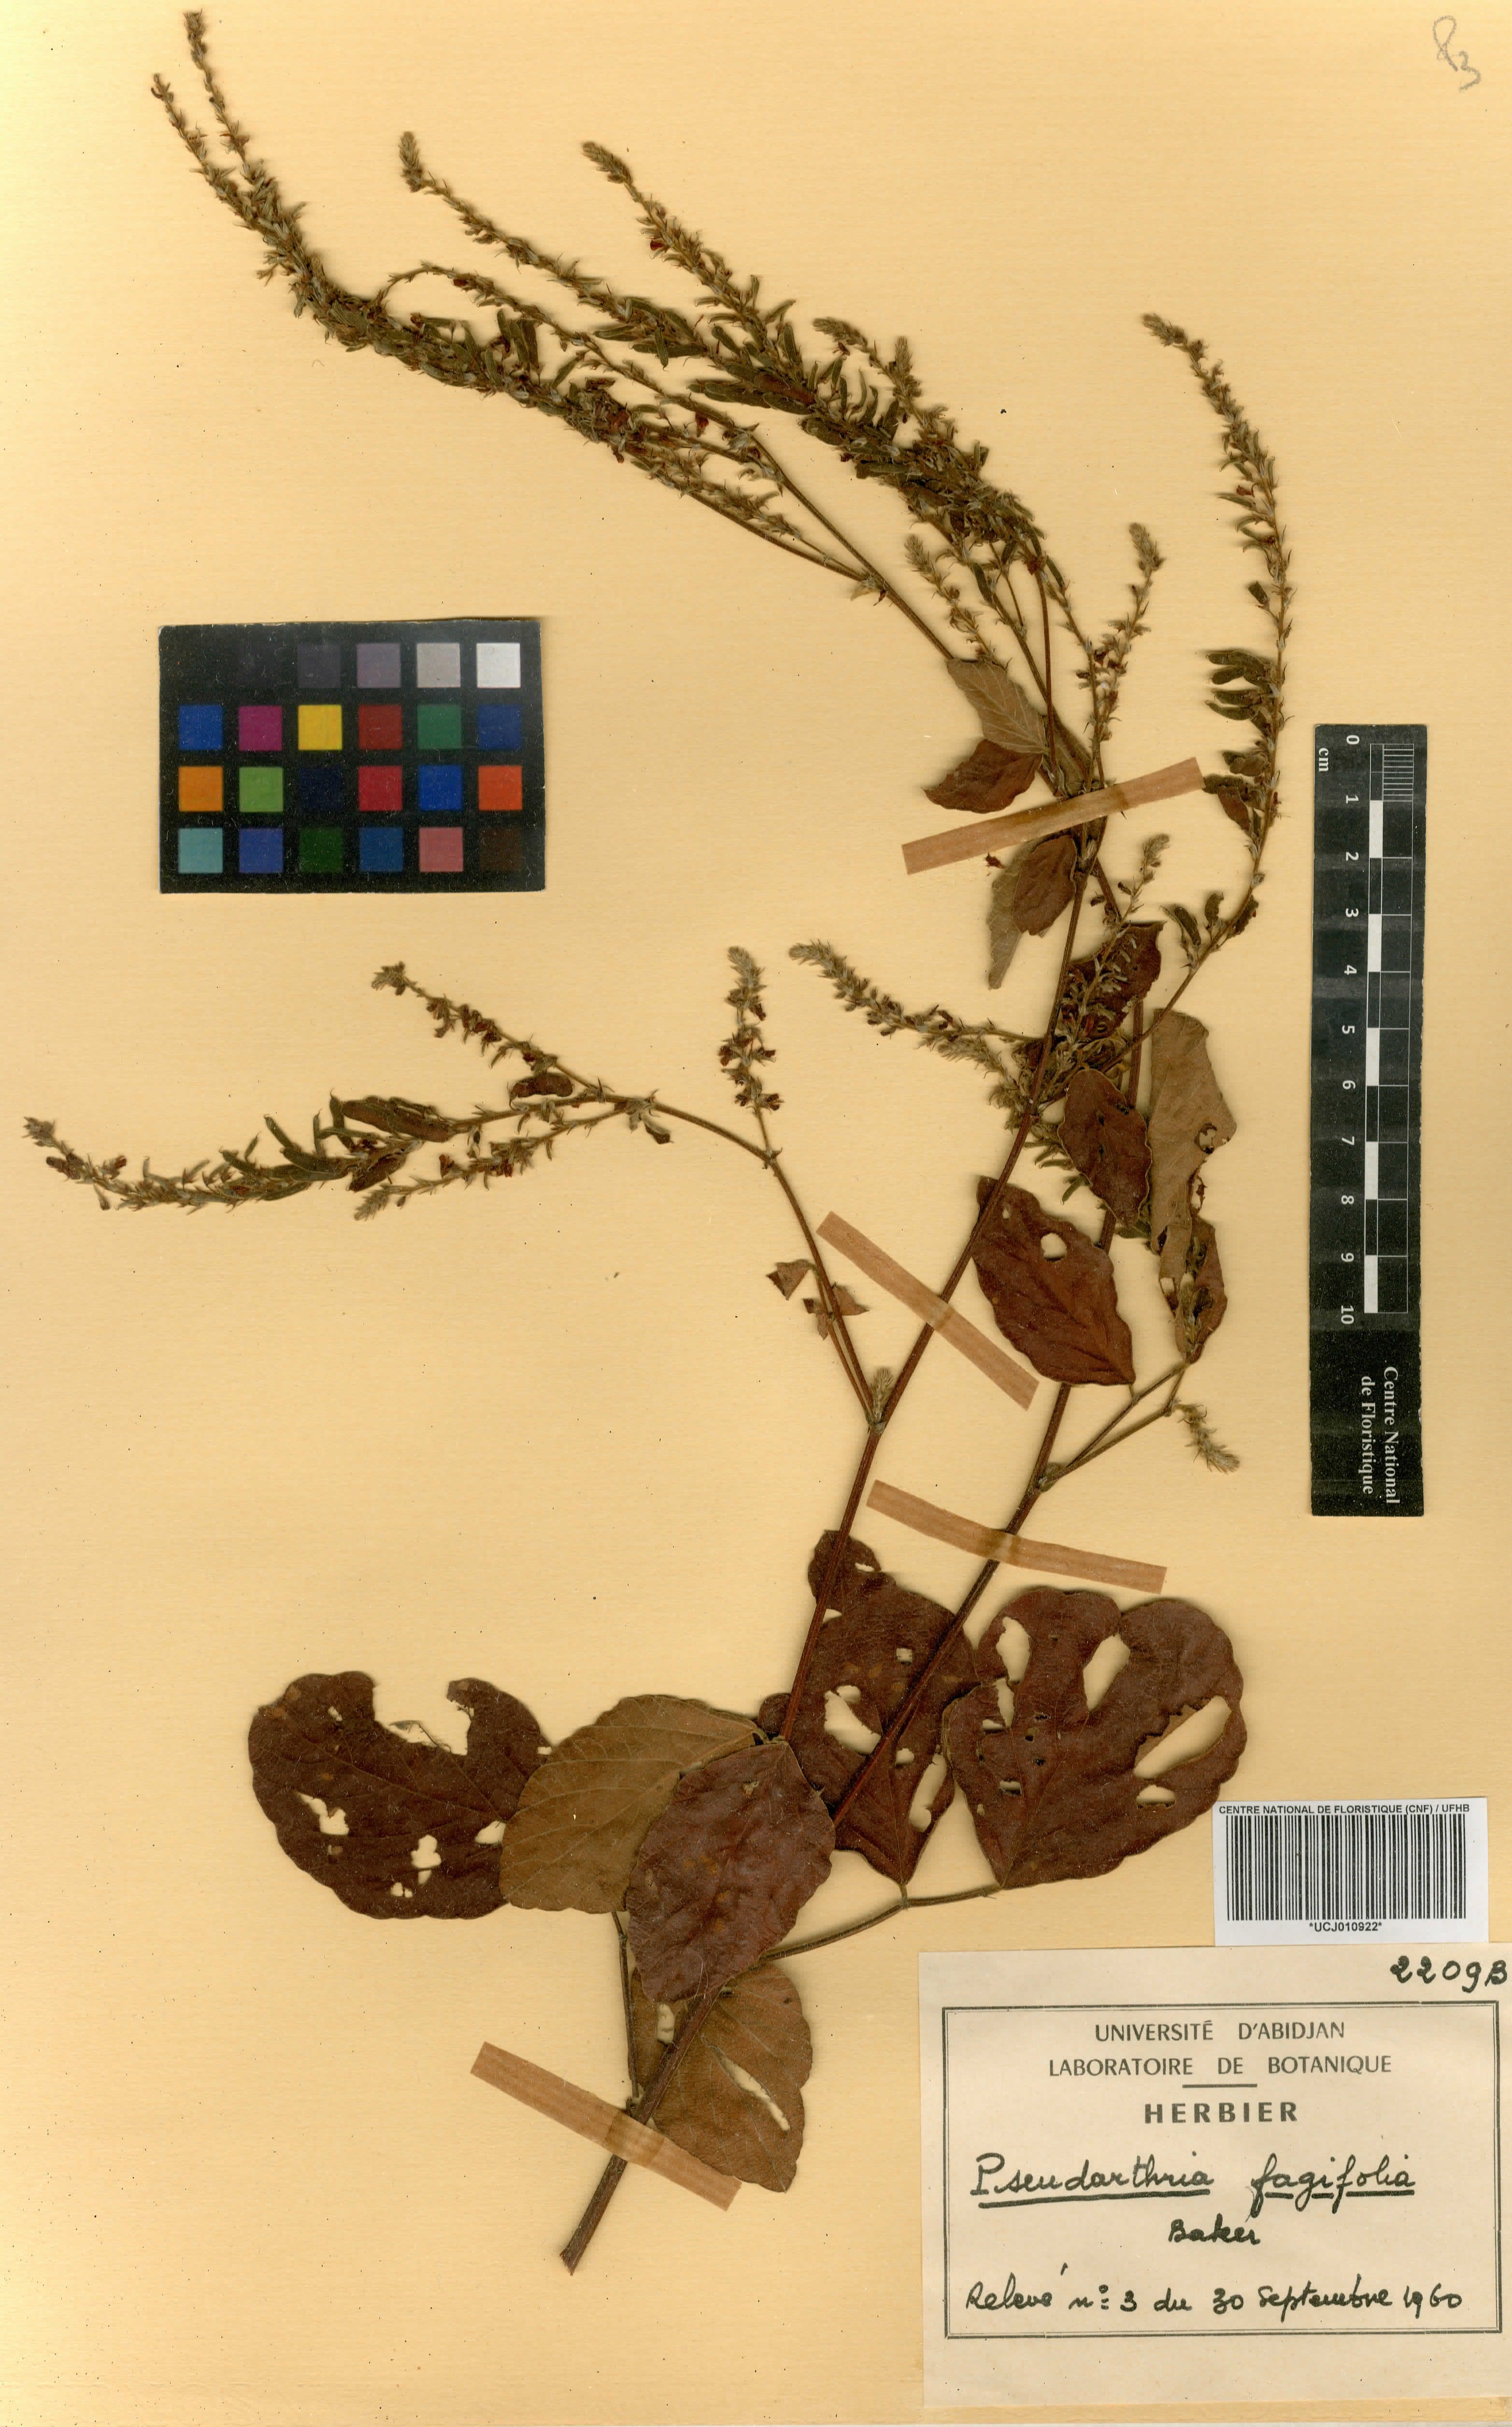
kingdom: Plantae
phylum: Tracheophyta
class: Magnoliopsida
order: Fabales
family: Fabaceae
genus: Pseudarthria
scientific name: Pseudarthria fagifolia
